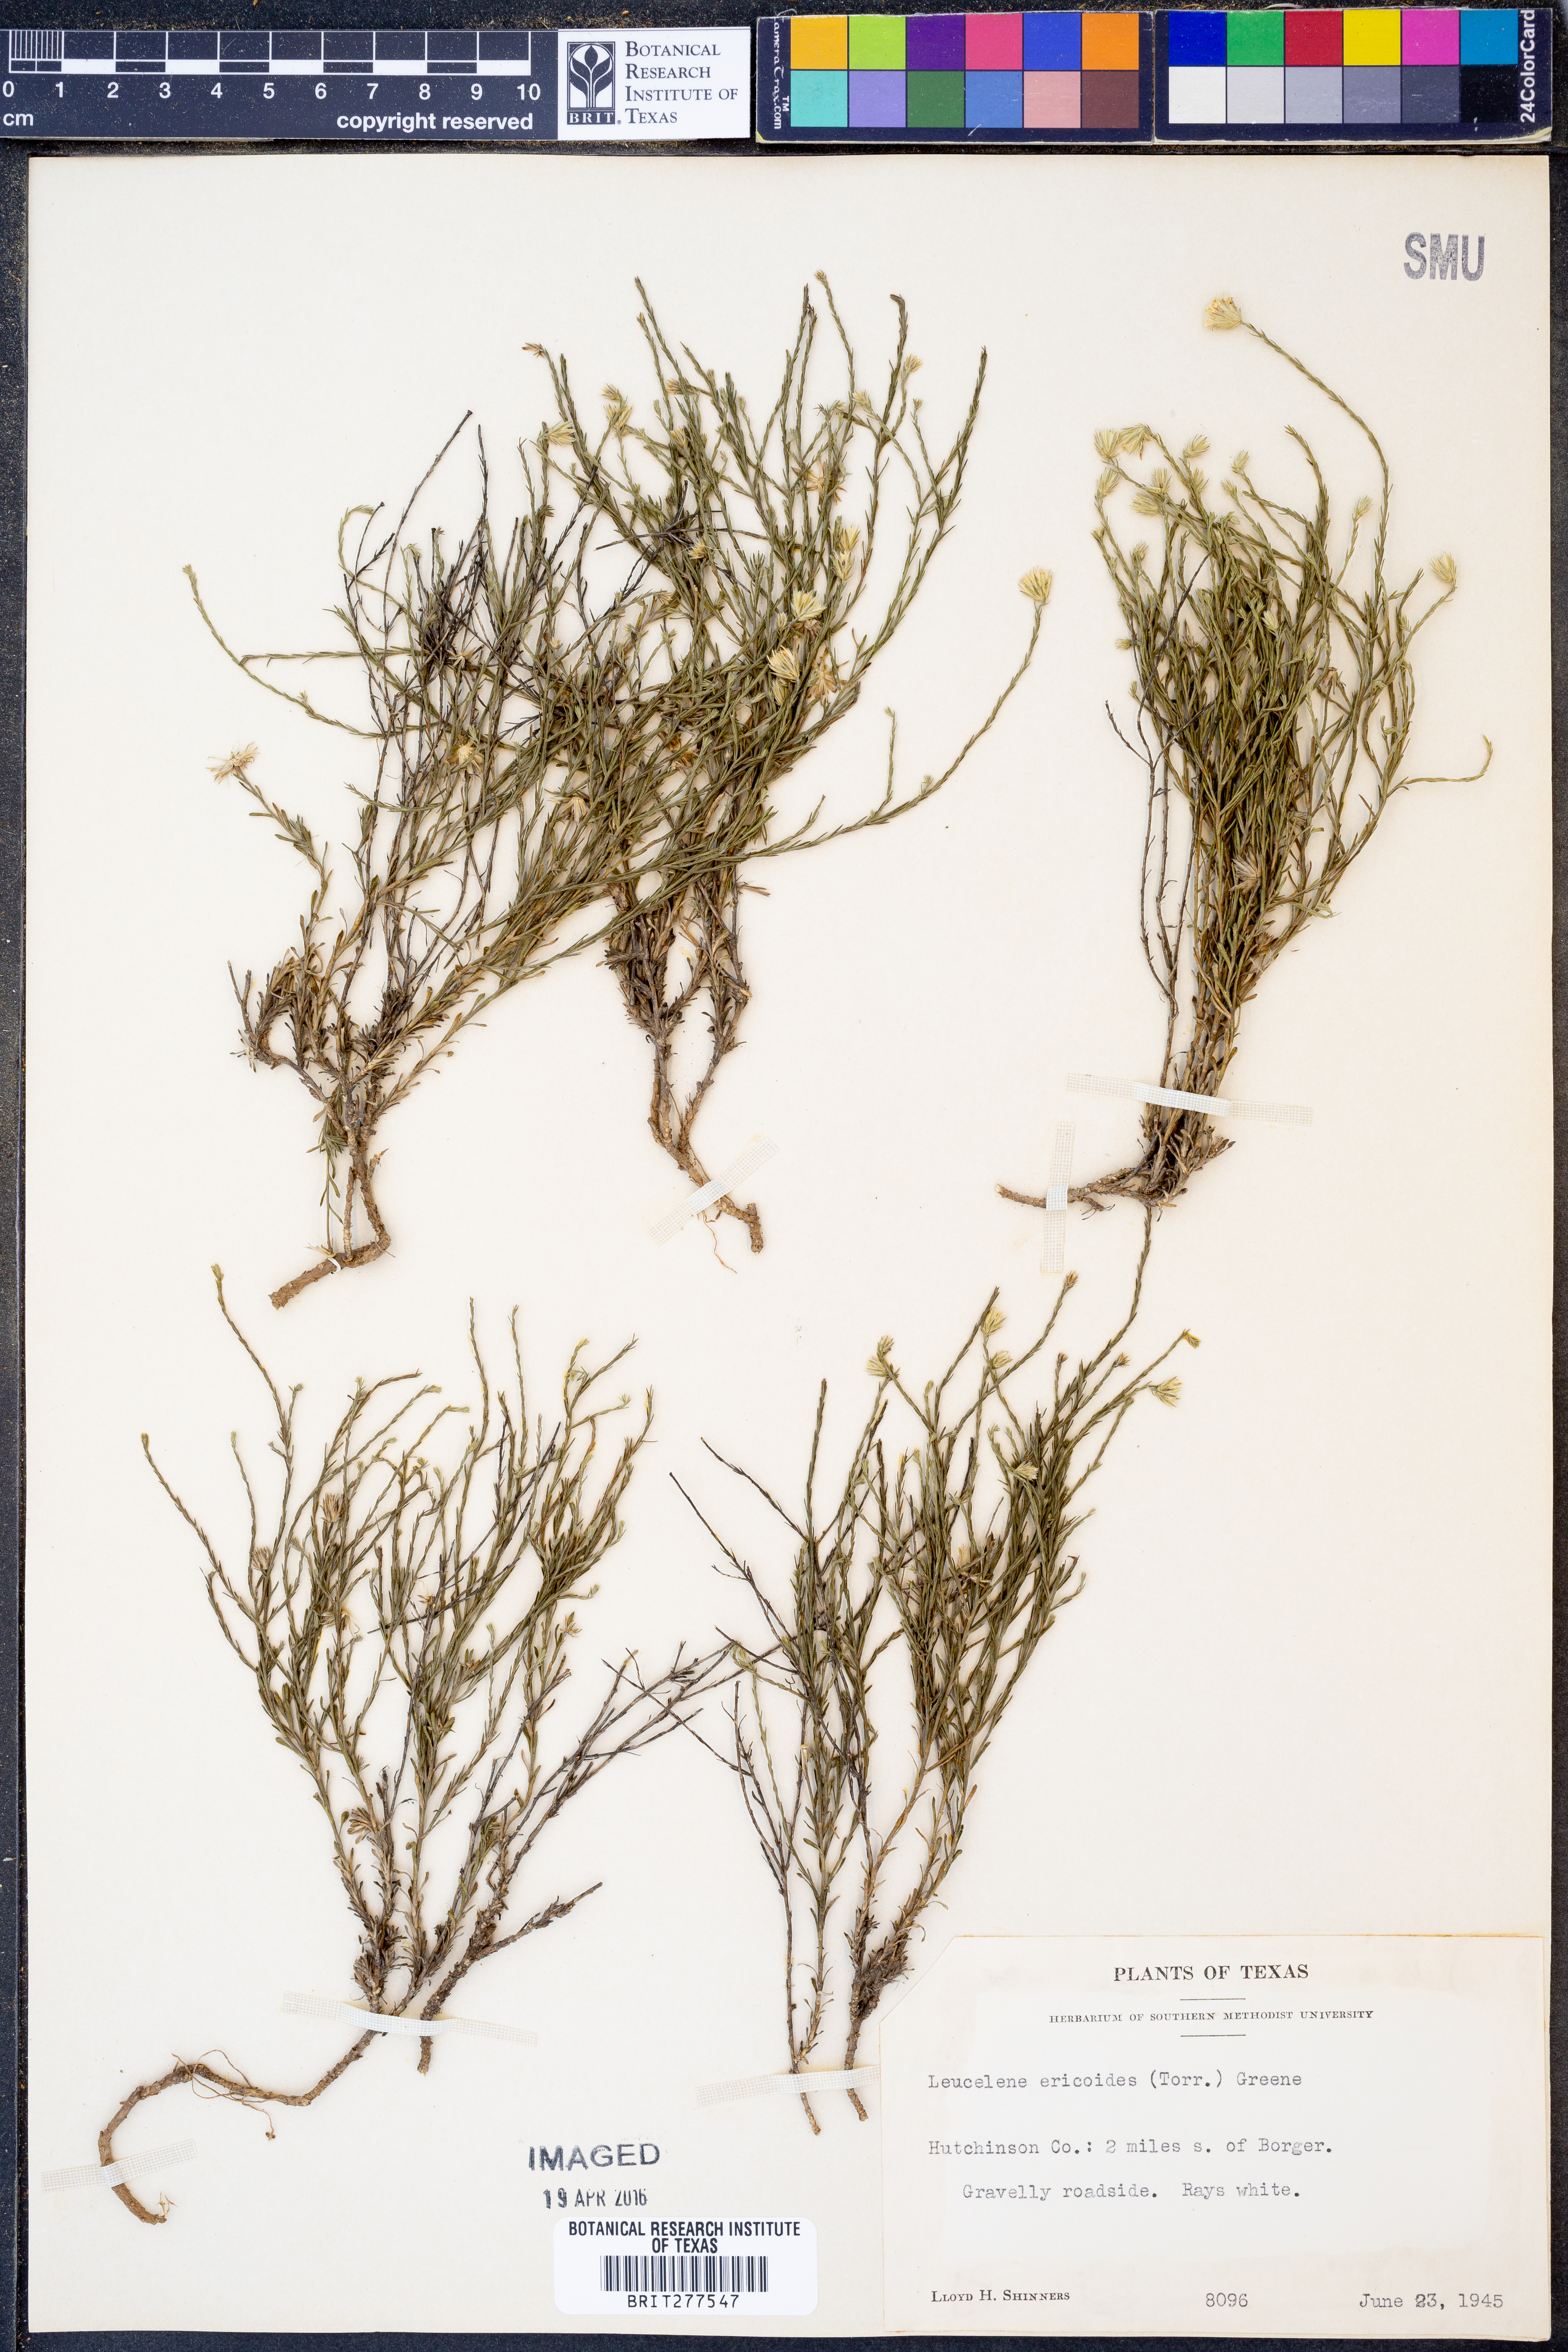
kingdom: Plantae
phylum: Tracheophyta
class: Magnoliopsida
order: Asterales
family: Asteraceae
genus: Chaetopappa
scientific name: Chaetopappa ericoides
